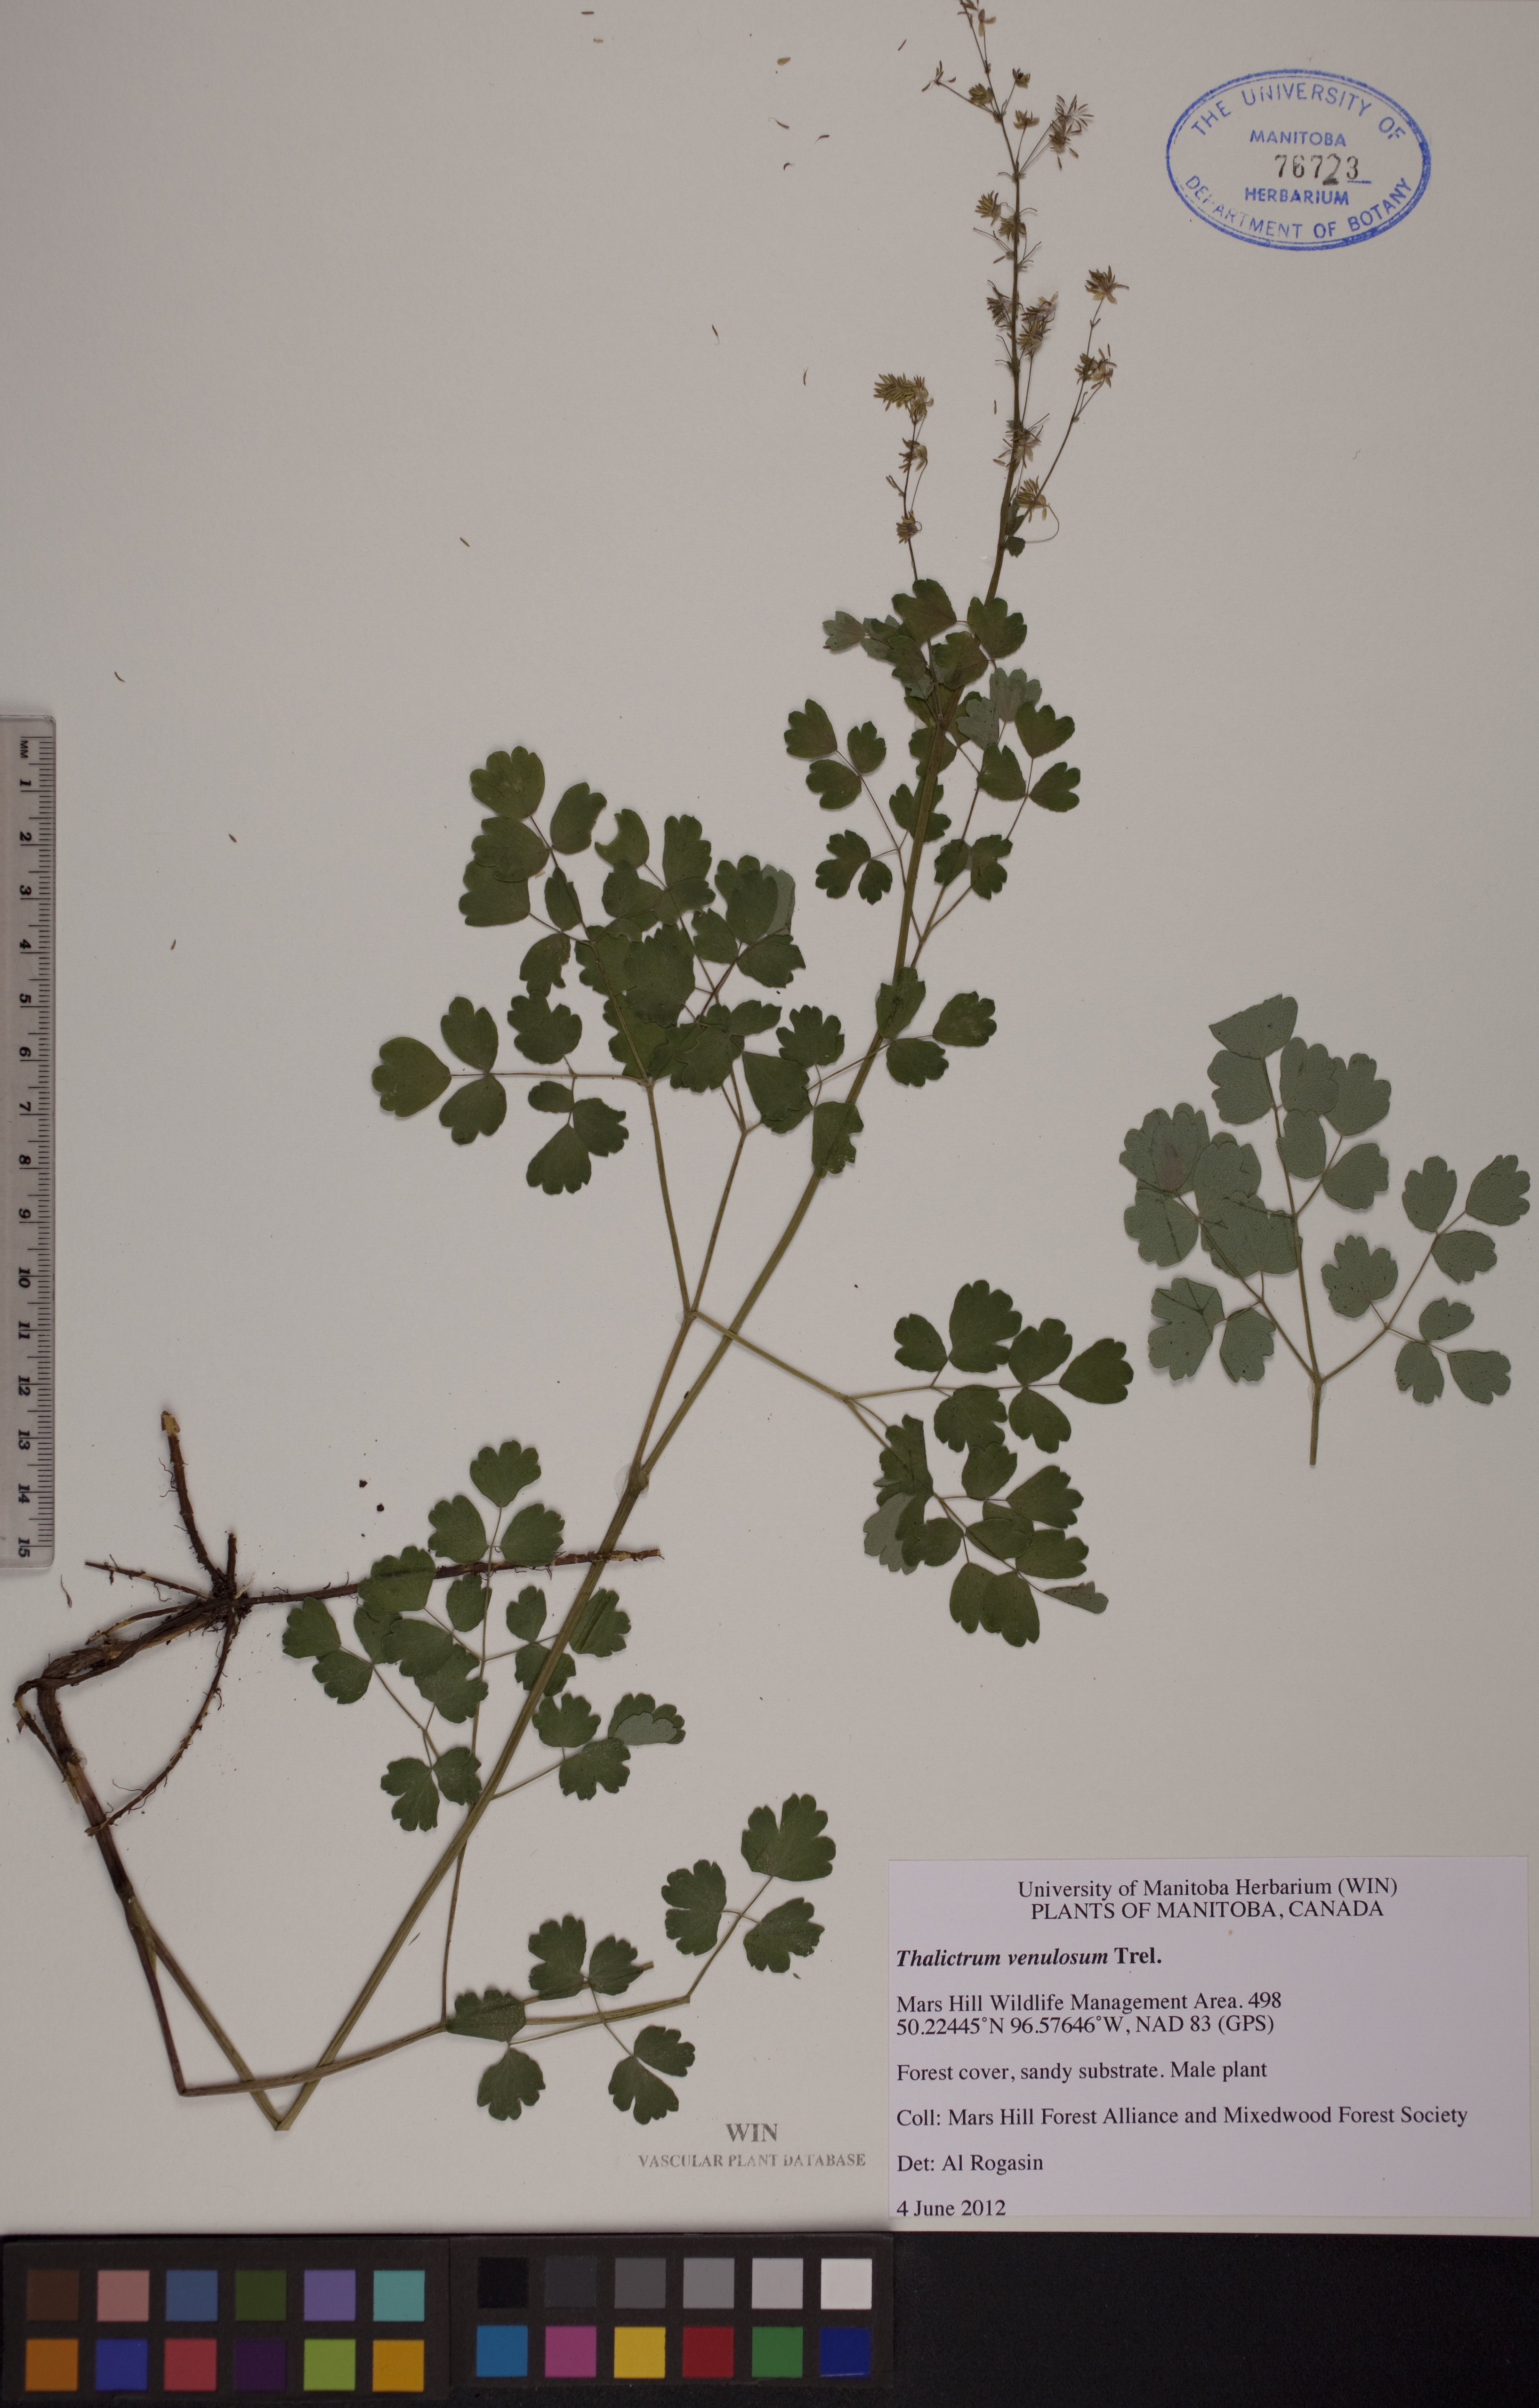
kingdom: Plantae
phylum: Tracheophyta
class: Magnoliopsida
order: Ranunculales
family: Ranunculaceae
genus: Thalictrum
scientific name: Thalictrum venulosum
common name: Early meadow-rue
